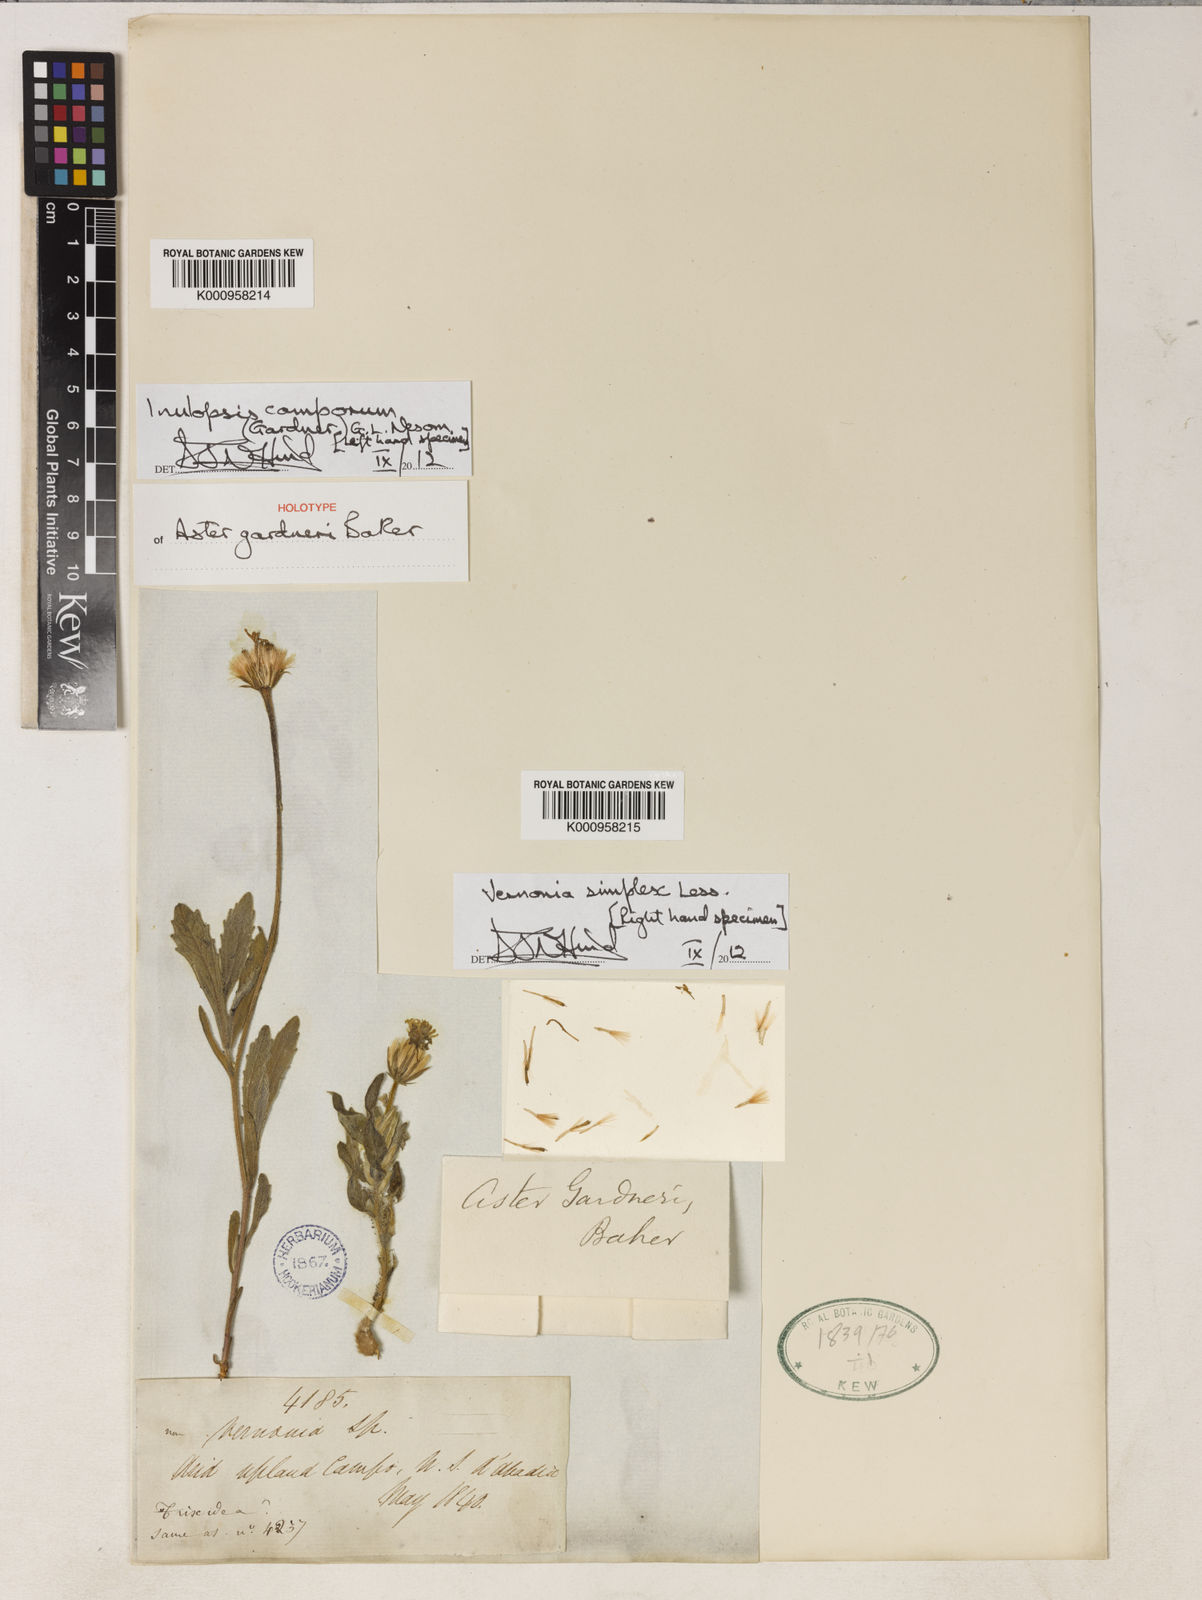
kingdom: Plantae
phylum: Tracheophyta
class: Magnoliopsida
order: Asterales
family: Asteraceae
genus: Inulopsis
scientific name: Inulopsis camporum
